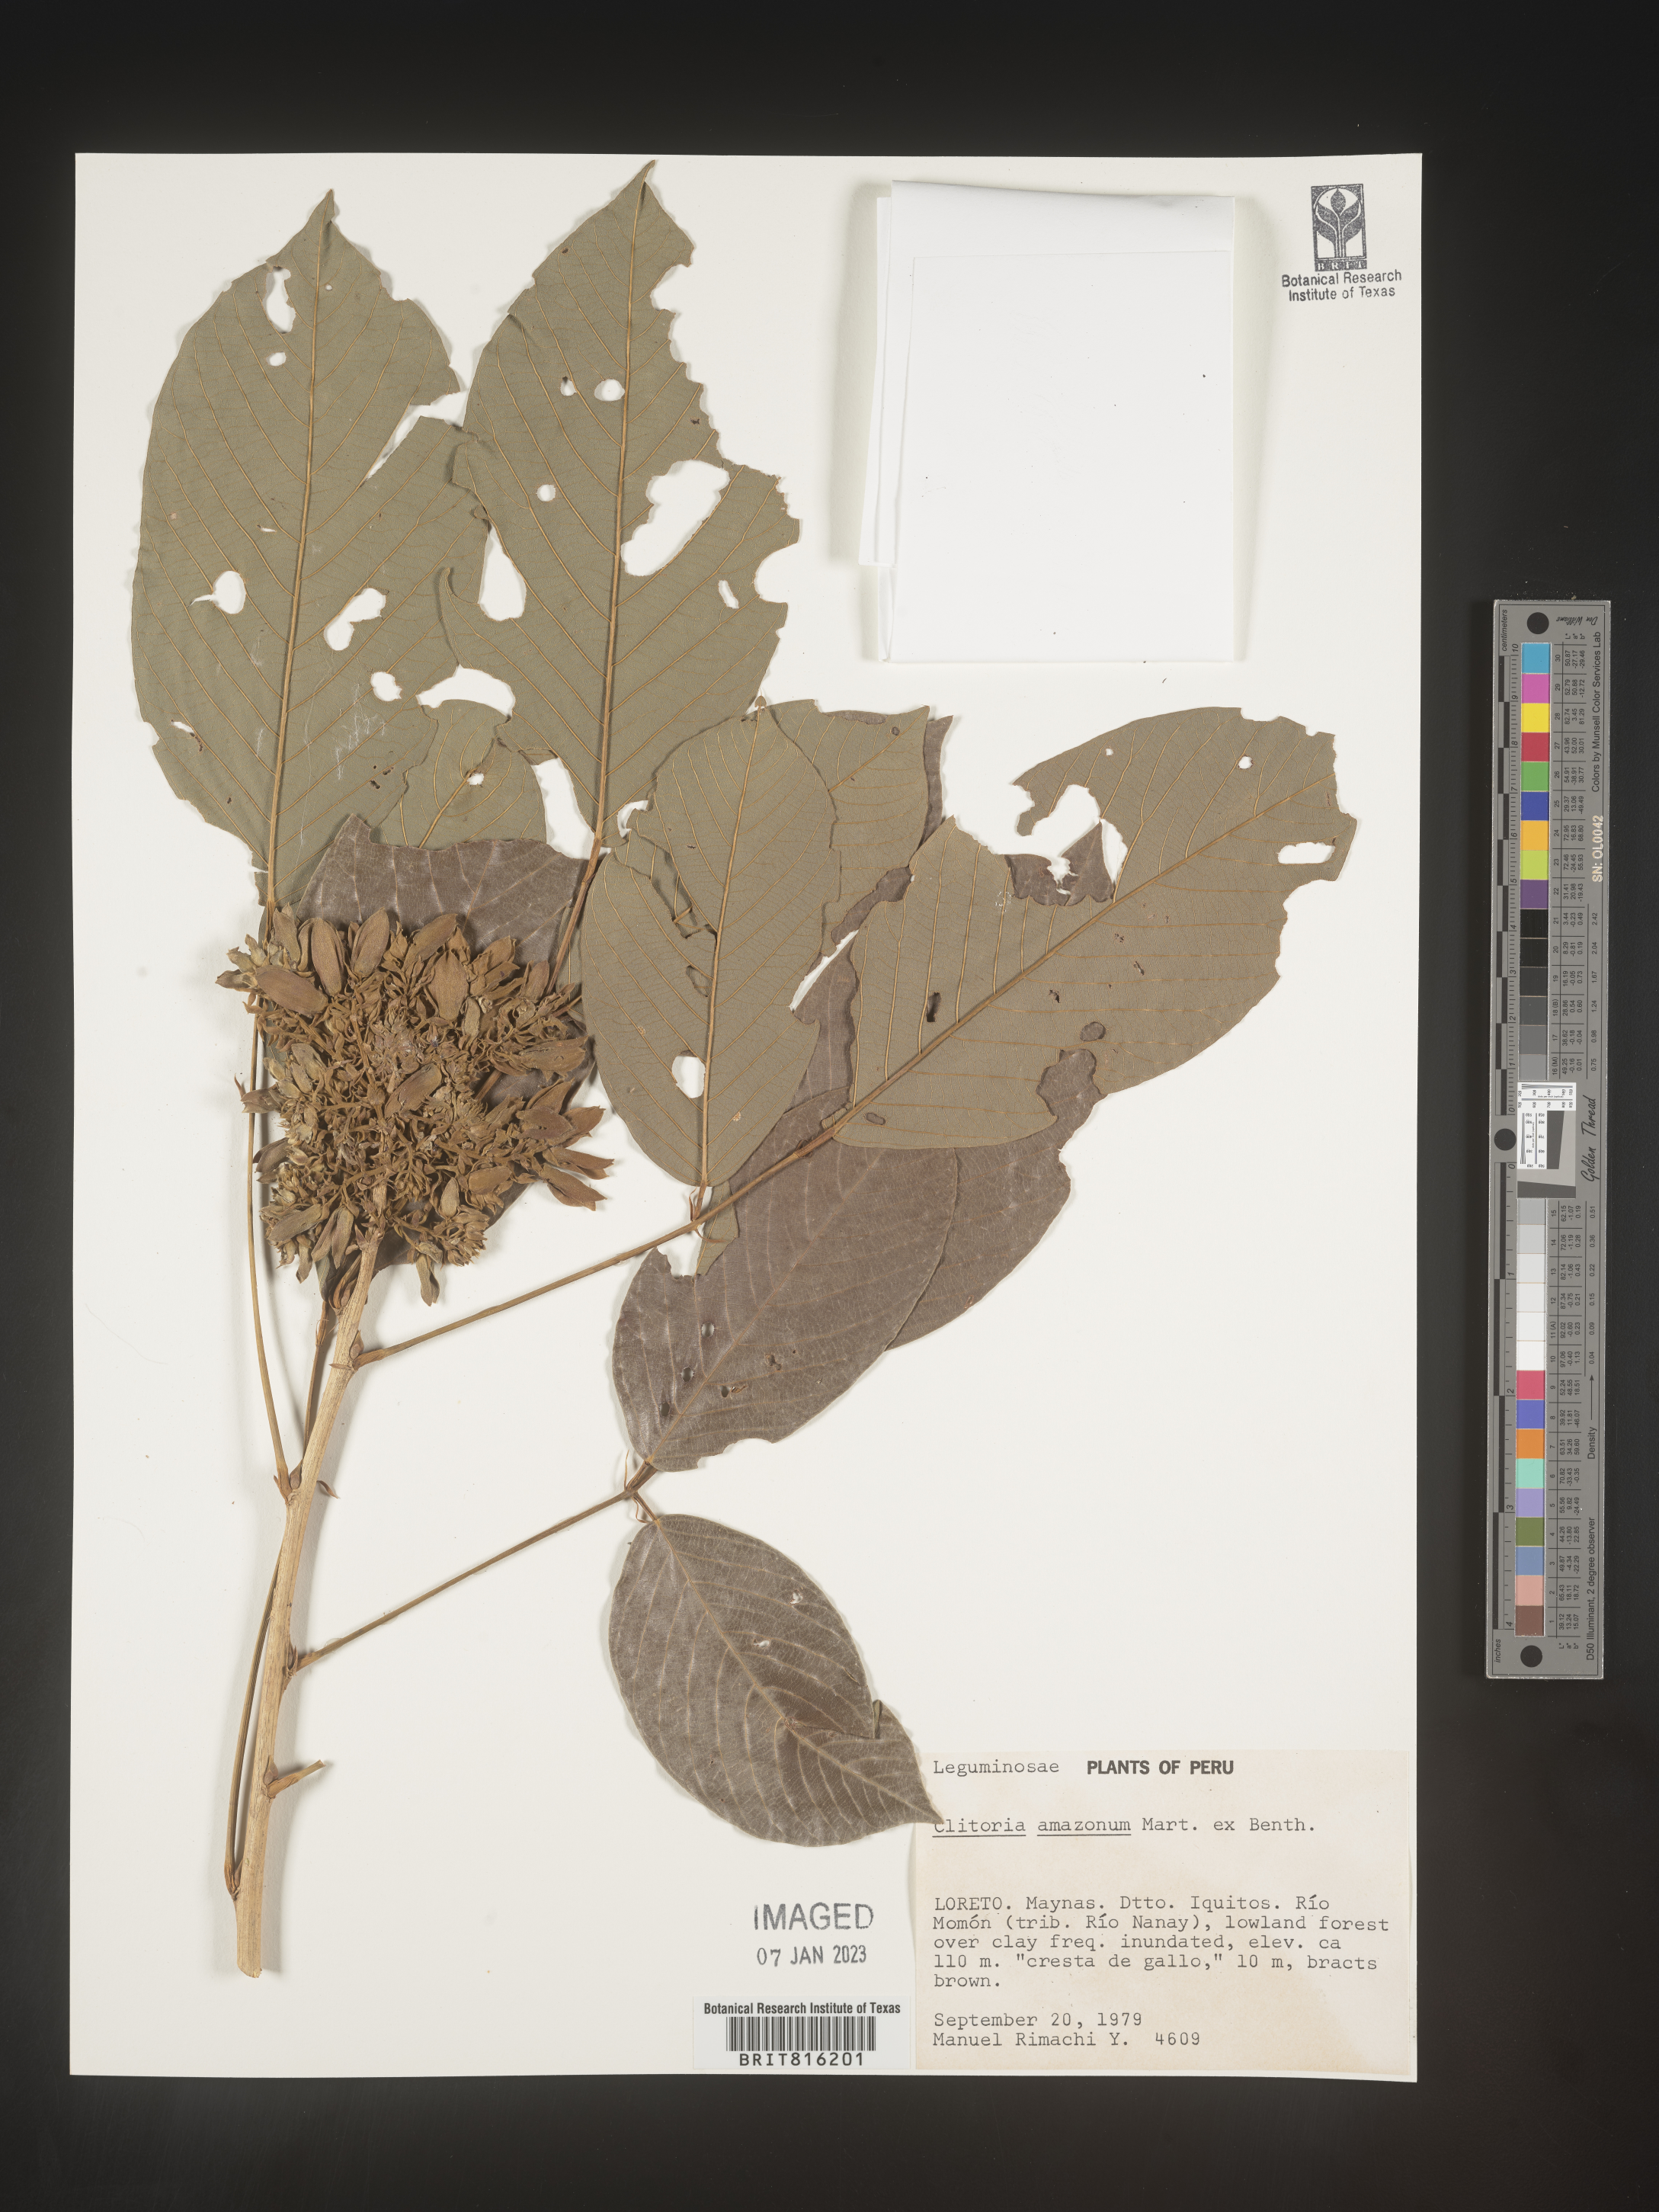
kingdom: Plantae
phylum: Tracheophyta
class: Magnoliopsida
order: Fabales
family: Fabaceae
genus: Clitoria
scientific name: Clitoria
